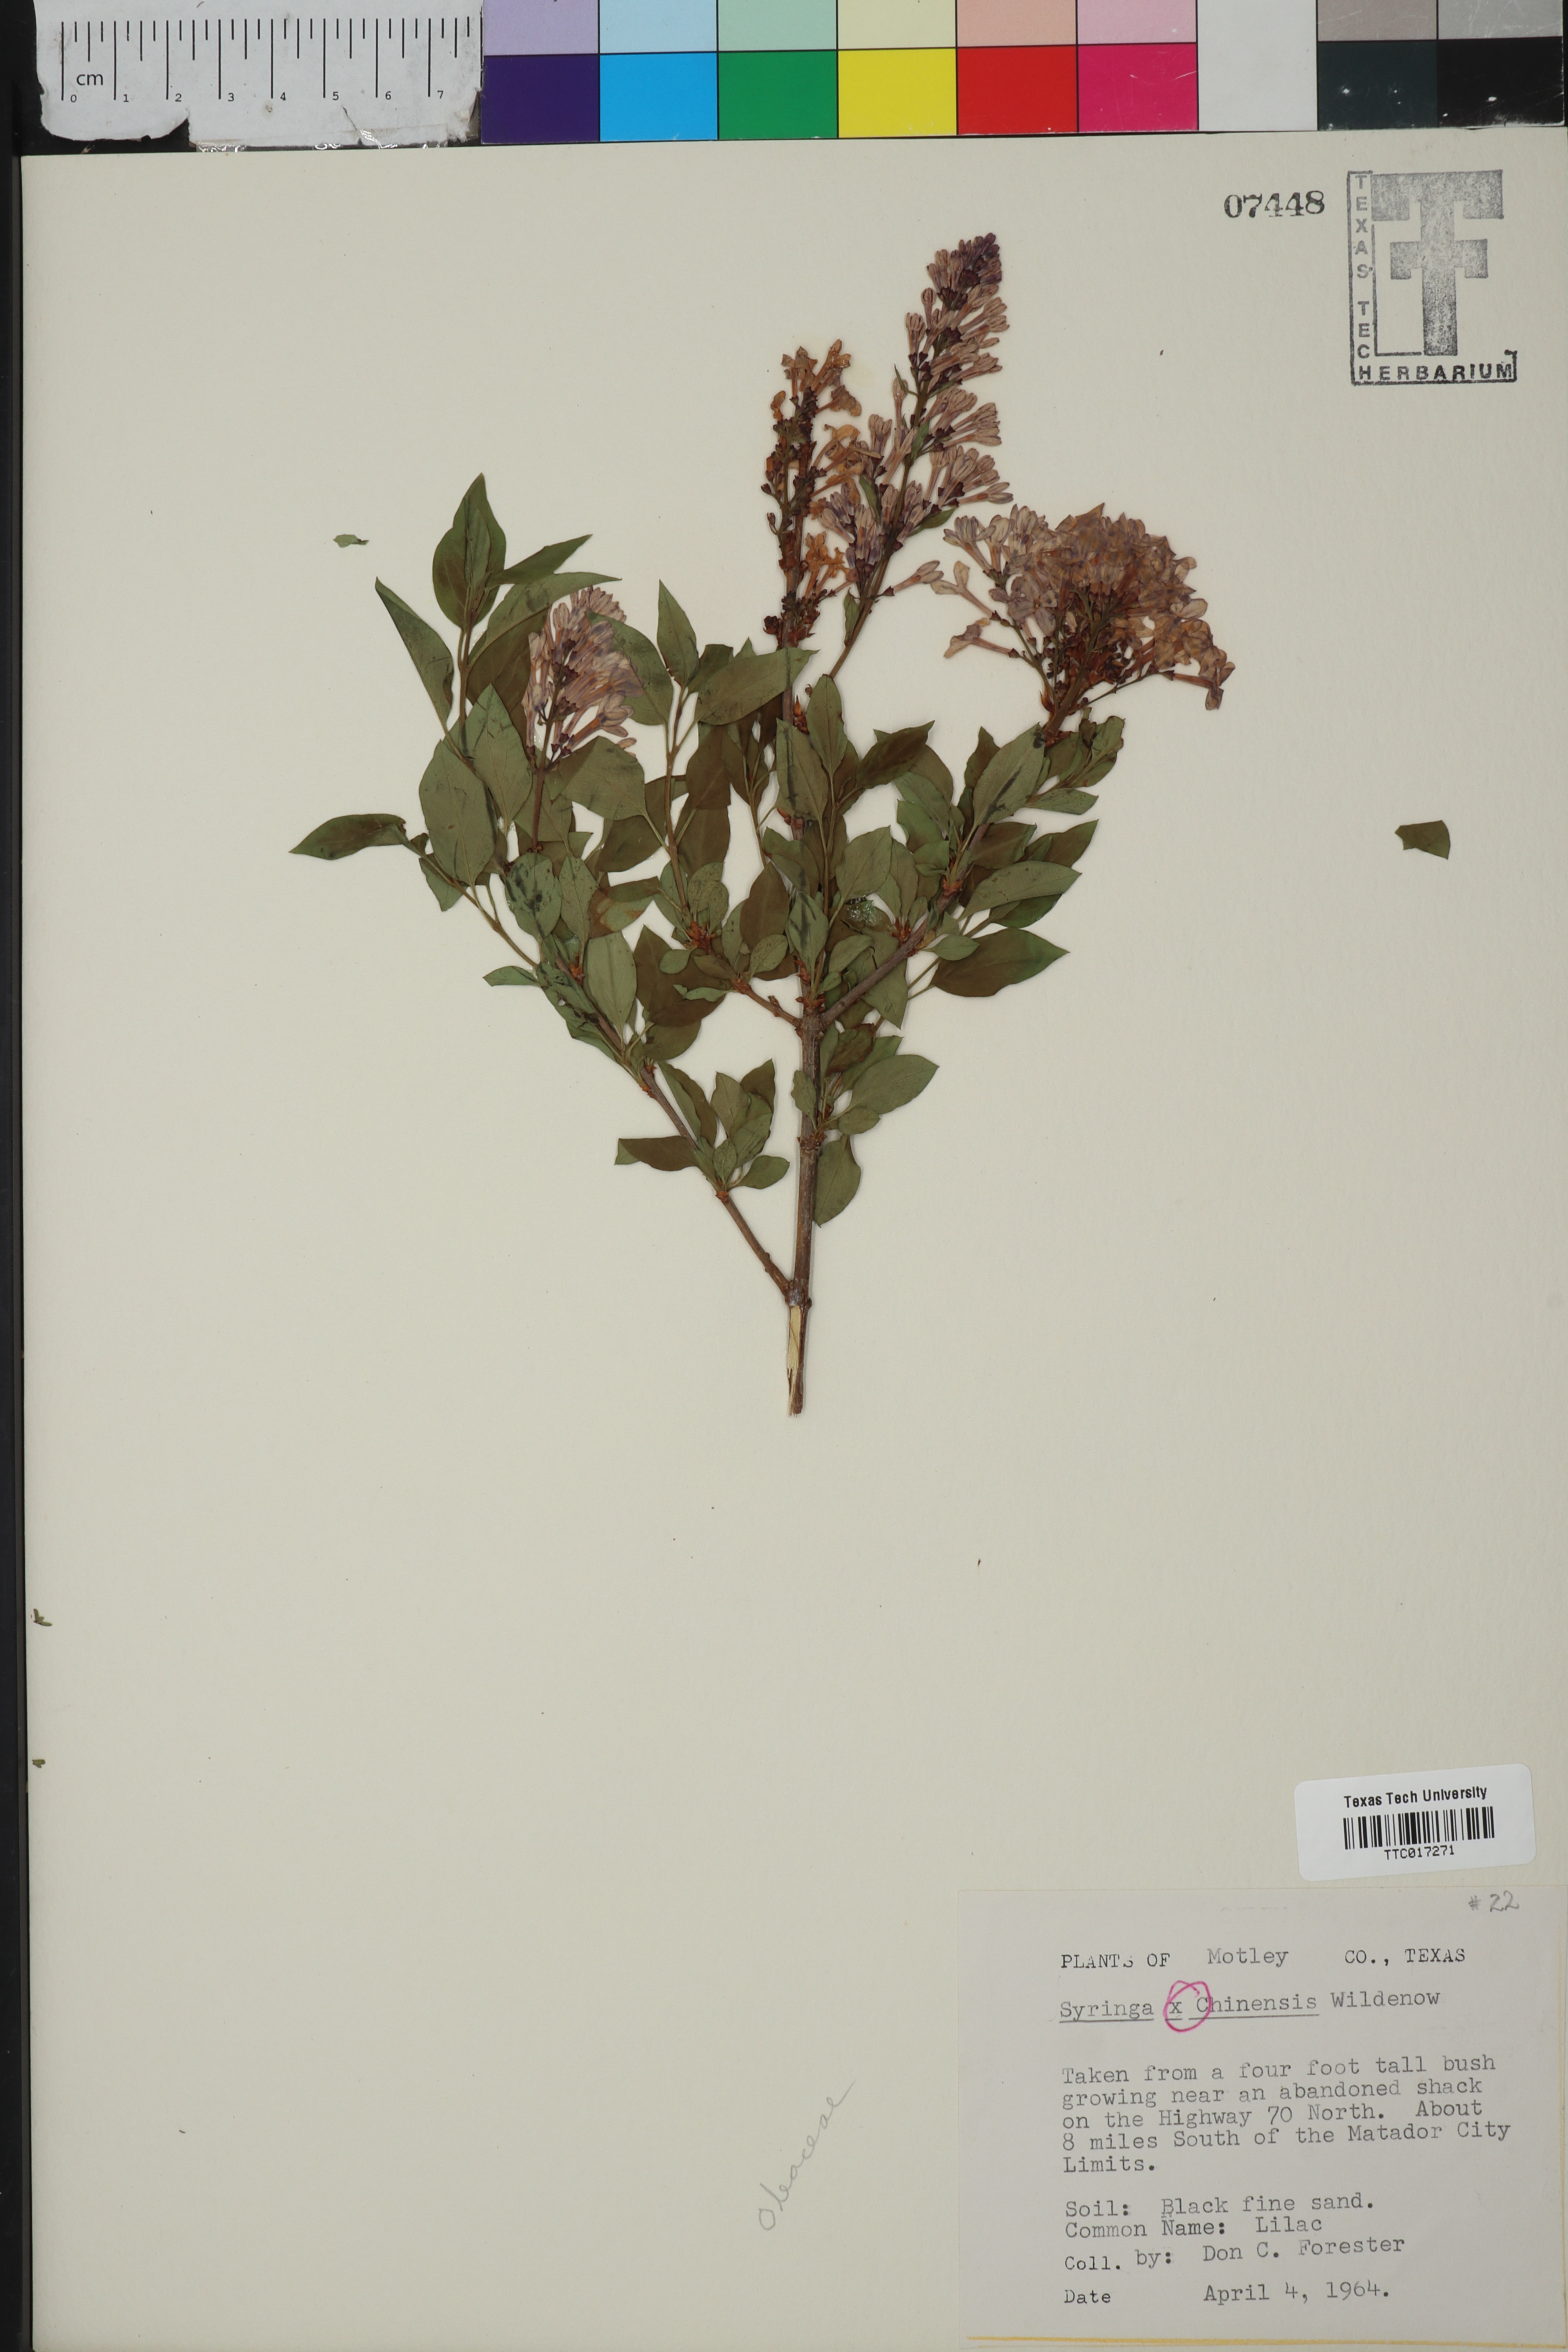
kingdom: Plantae
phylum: Tracheophyta
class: Magnoliopsida
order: Lamiales
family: Oleaceae
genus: Syringa
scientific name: Syringa chinensis
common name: Chinese lilac
